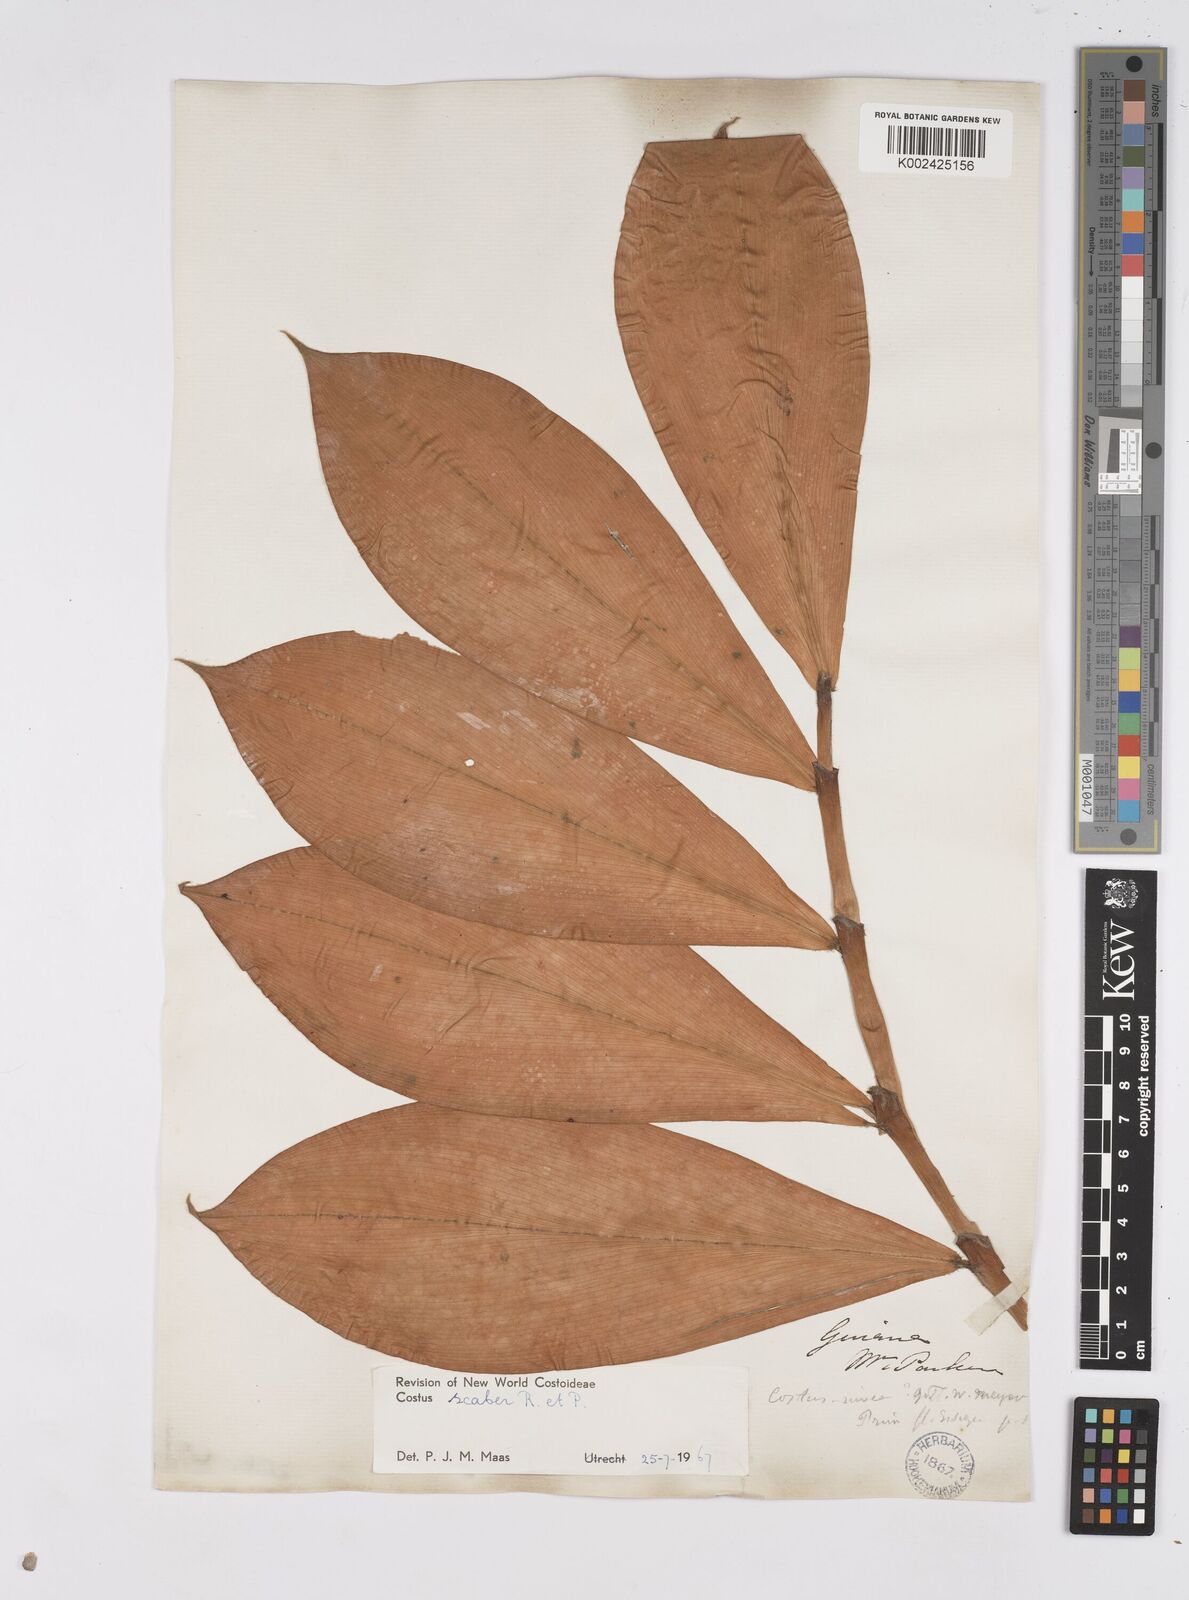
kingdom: Plantae
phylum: Tracheophyta
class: Liliopsida
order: Zingiberales
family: Costaceae
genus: Costus
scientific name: Costus scaber
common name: Spiral head ginger
